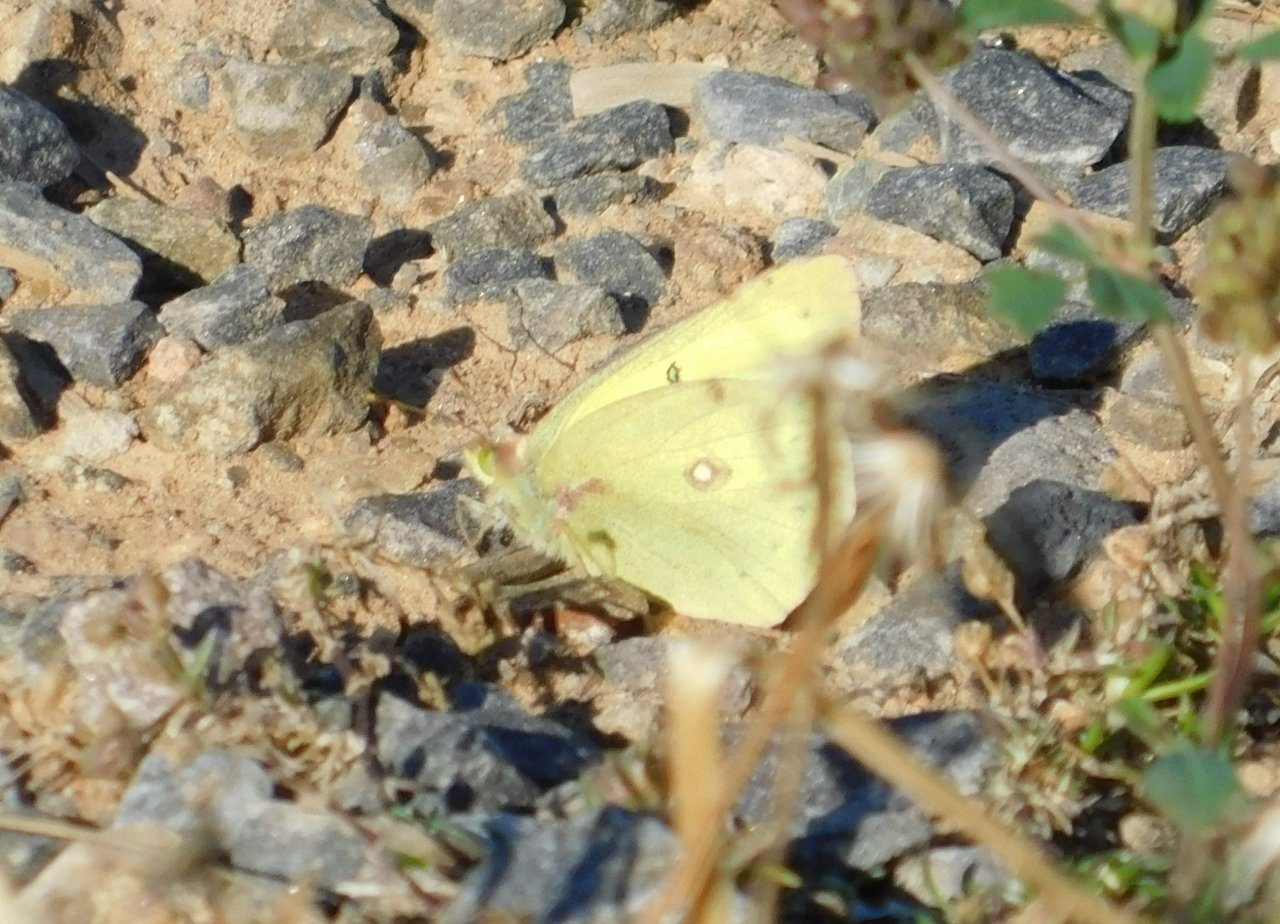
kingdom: Animalia
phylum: Arthropoda
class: Insecta
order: Lepidoptera
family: Pieridae
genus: Colias
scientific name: Colias philodice
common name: Clouded Sulphur
